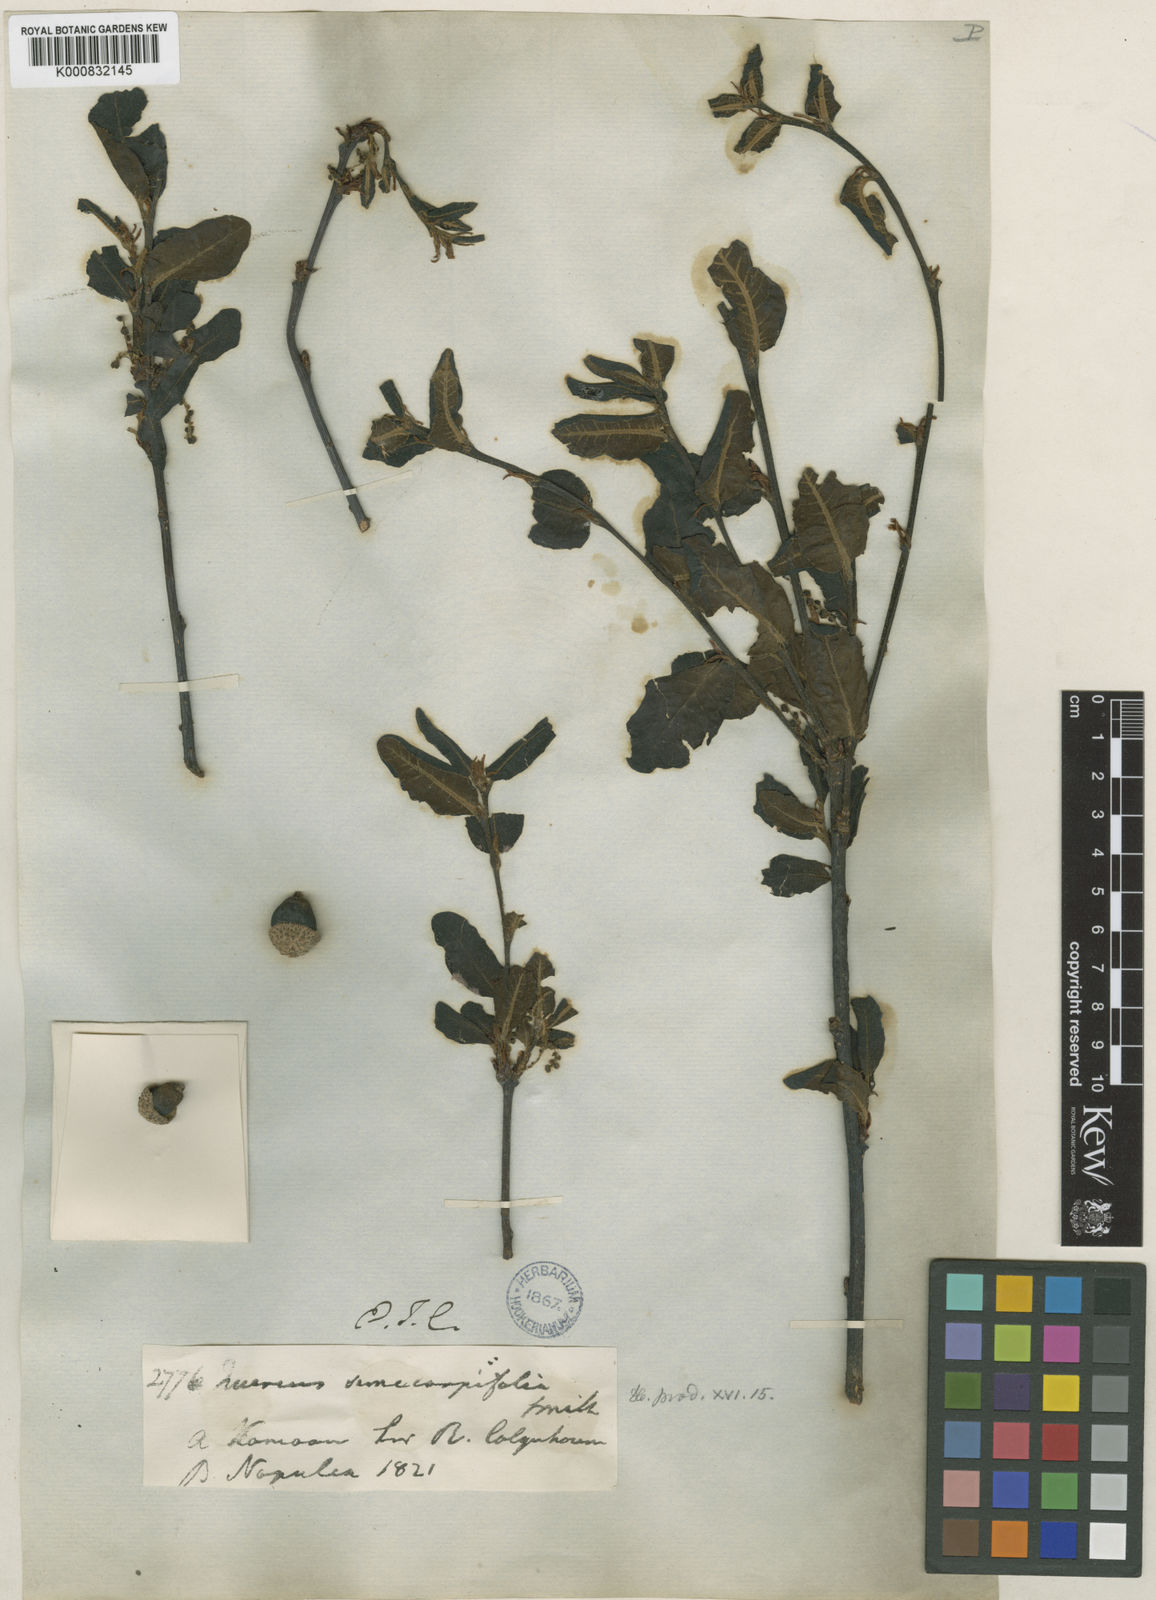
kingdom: Plantae
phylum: Tracheophyta
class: Magnoliopsida
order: Fagales
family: Fagaceae
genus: Quercus
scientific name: Quercus semecarpifolia
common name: Brown oak
